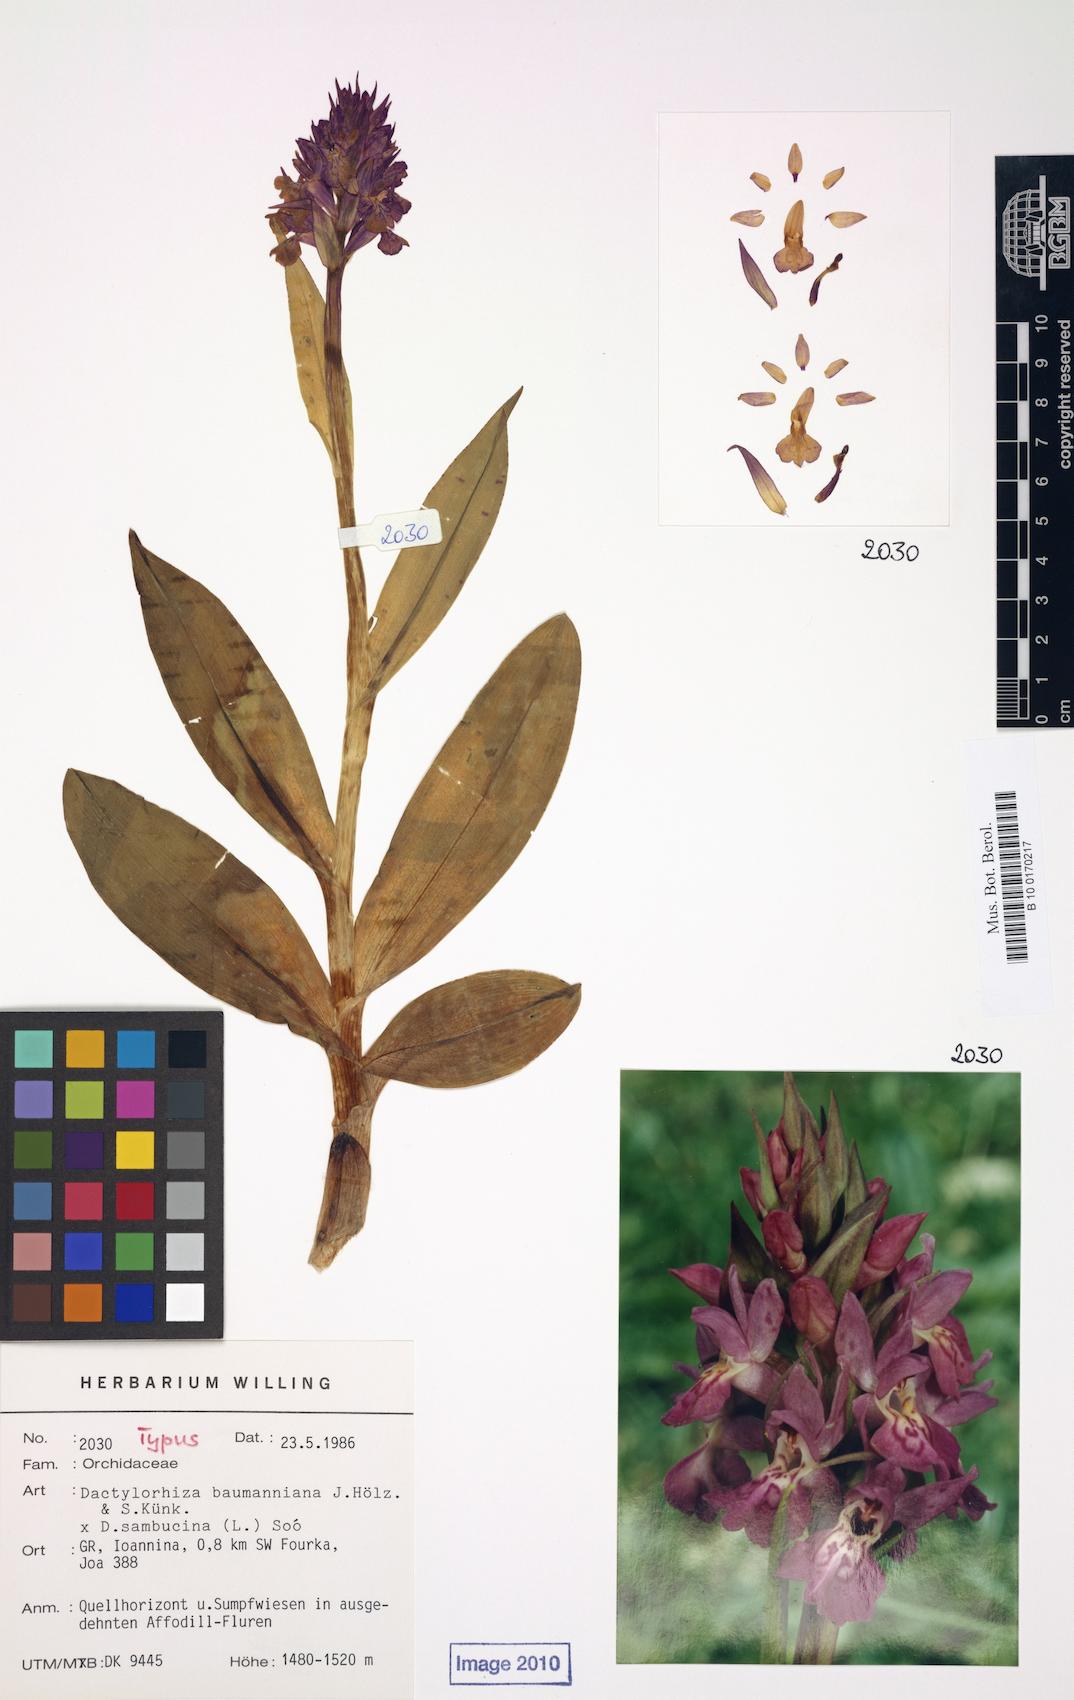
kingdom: Plantae
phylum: Tracheophyta
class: Liliopsida
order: Asparagales
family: Orchidaceae
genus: Dactylorhiza
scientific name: Dactylorhiza
